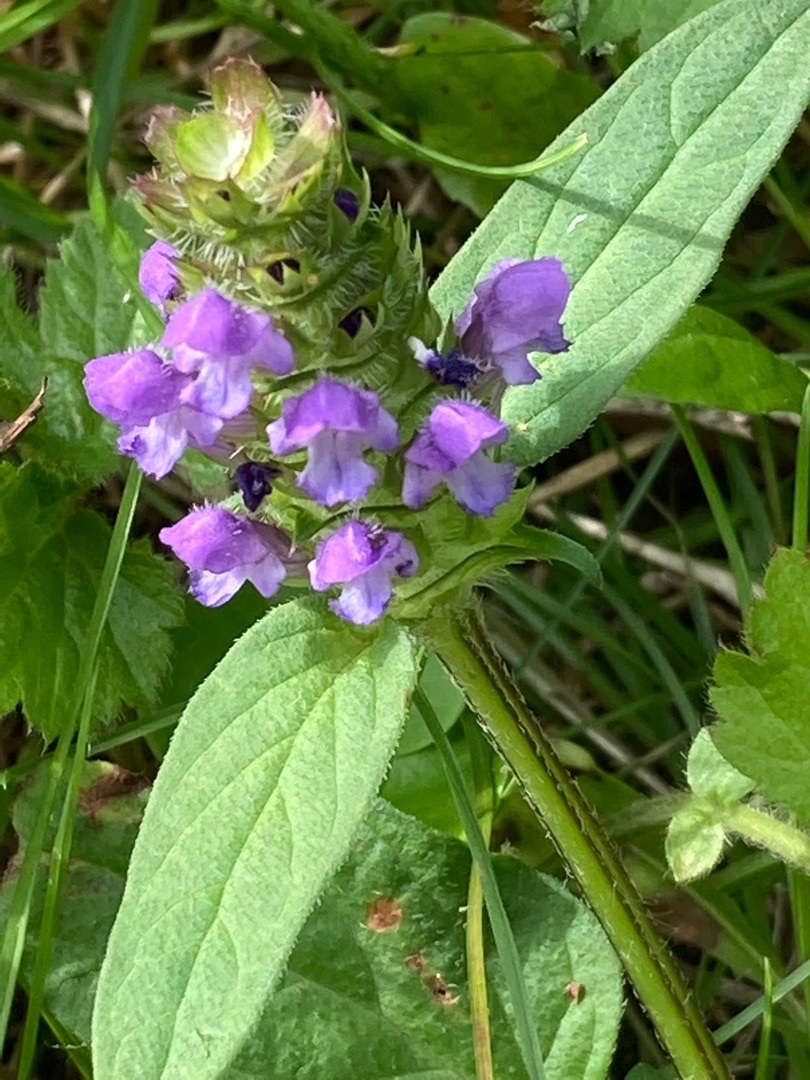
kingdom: Plantae
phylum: Tracheophyta
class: Magnoliopsida
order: Lamiales
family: Lamiaceae
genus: Prunella
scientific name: Prunella vulgaris
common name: Almindelig brunelle
